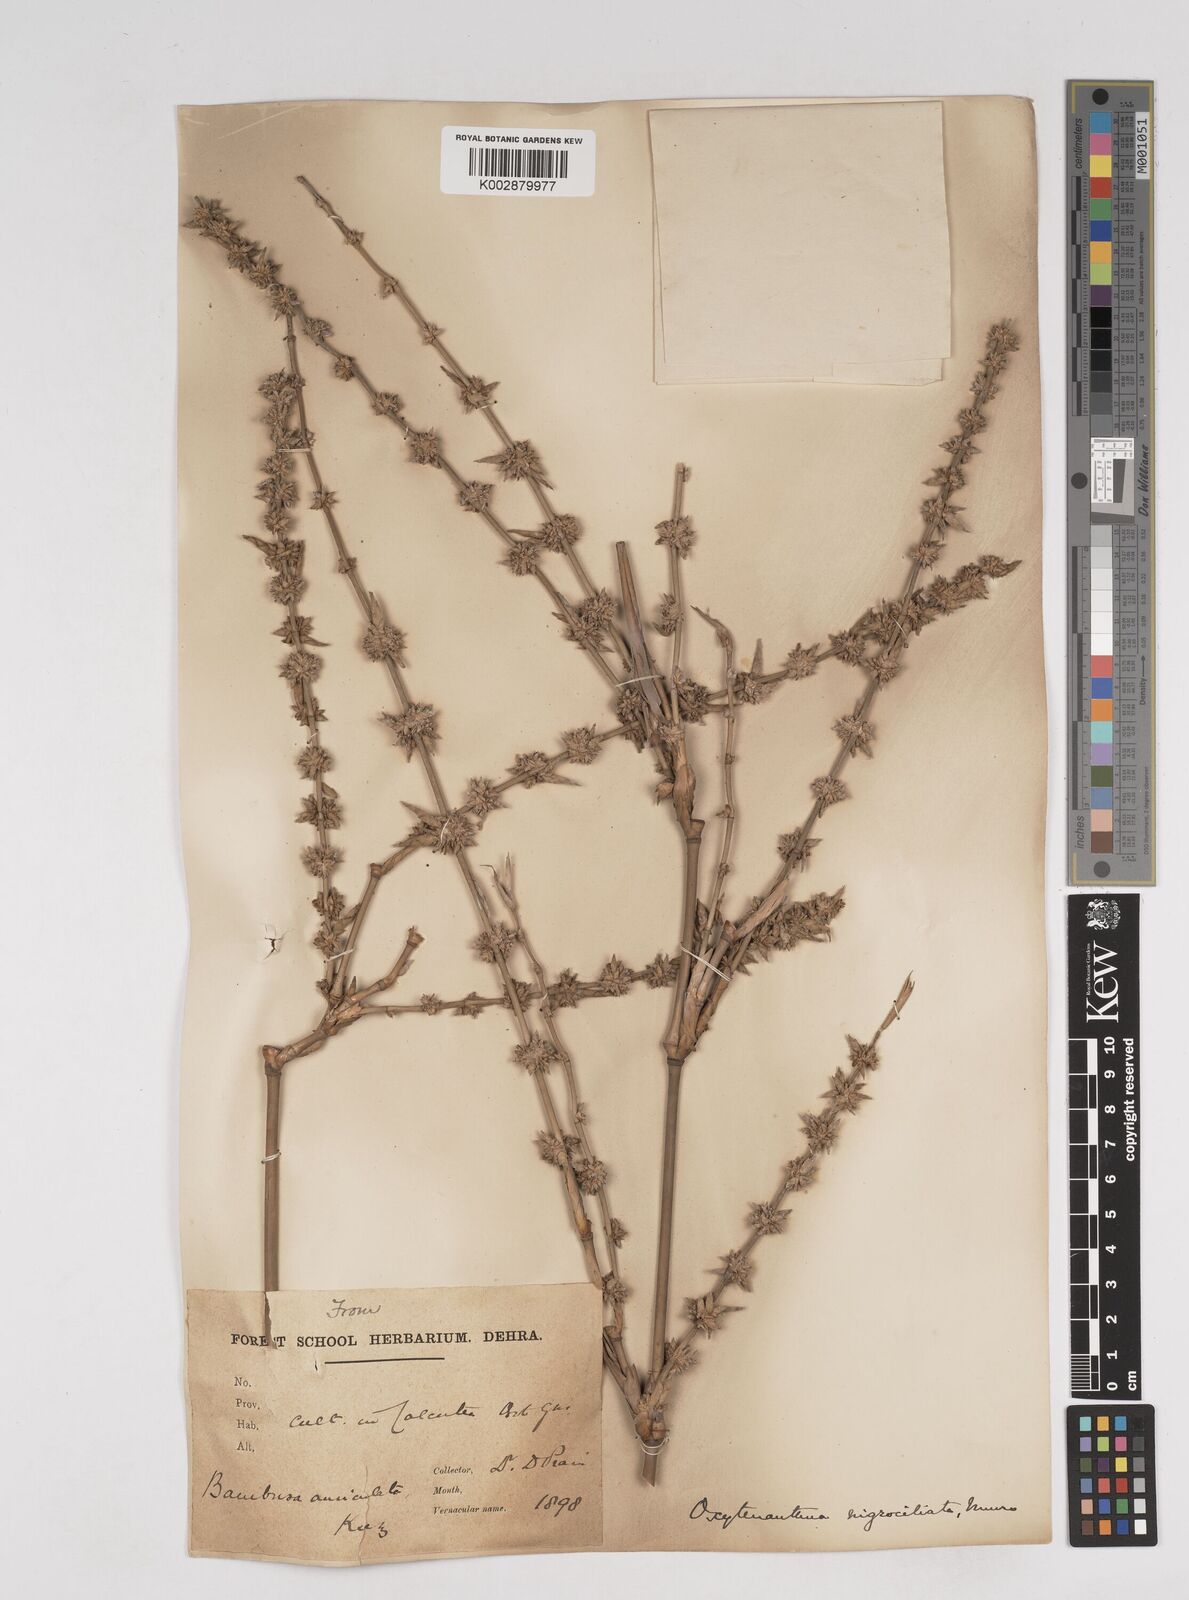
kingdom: Plantae
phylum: Tracheophyta
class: Liliopsida
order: Poales
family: Poaceae
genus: Gigantochloa
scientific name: Gigantochloa nigrociliata
